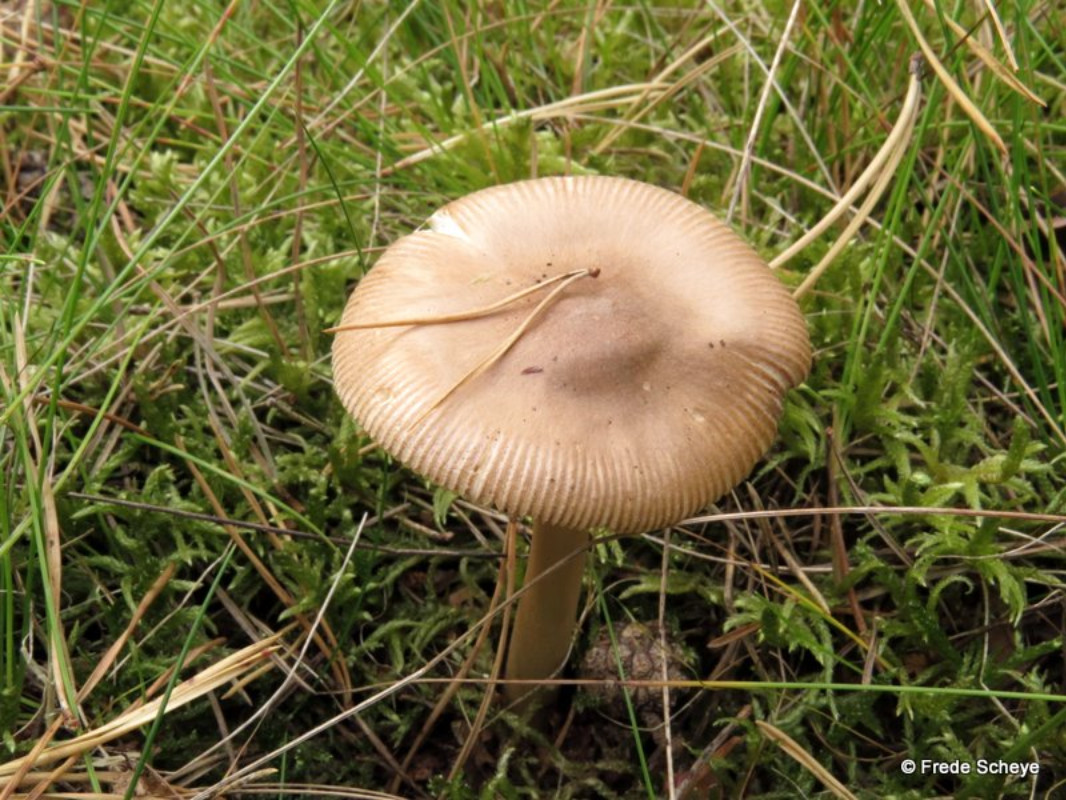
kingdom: Fungi
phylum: Basidiomycota
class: Agaricomycetes
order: Agaricales
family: Amanitaceae
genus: Amanita
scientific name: Amanita fulva
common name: brun kam-fluesvamp
